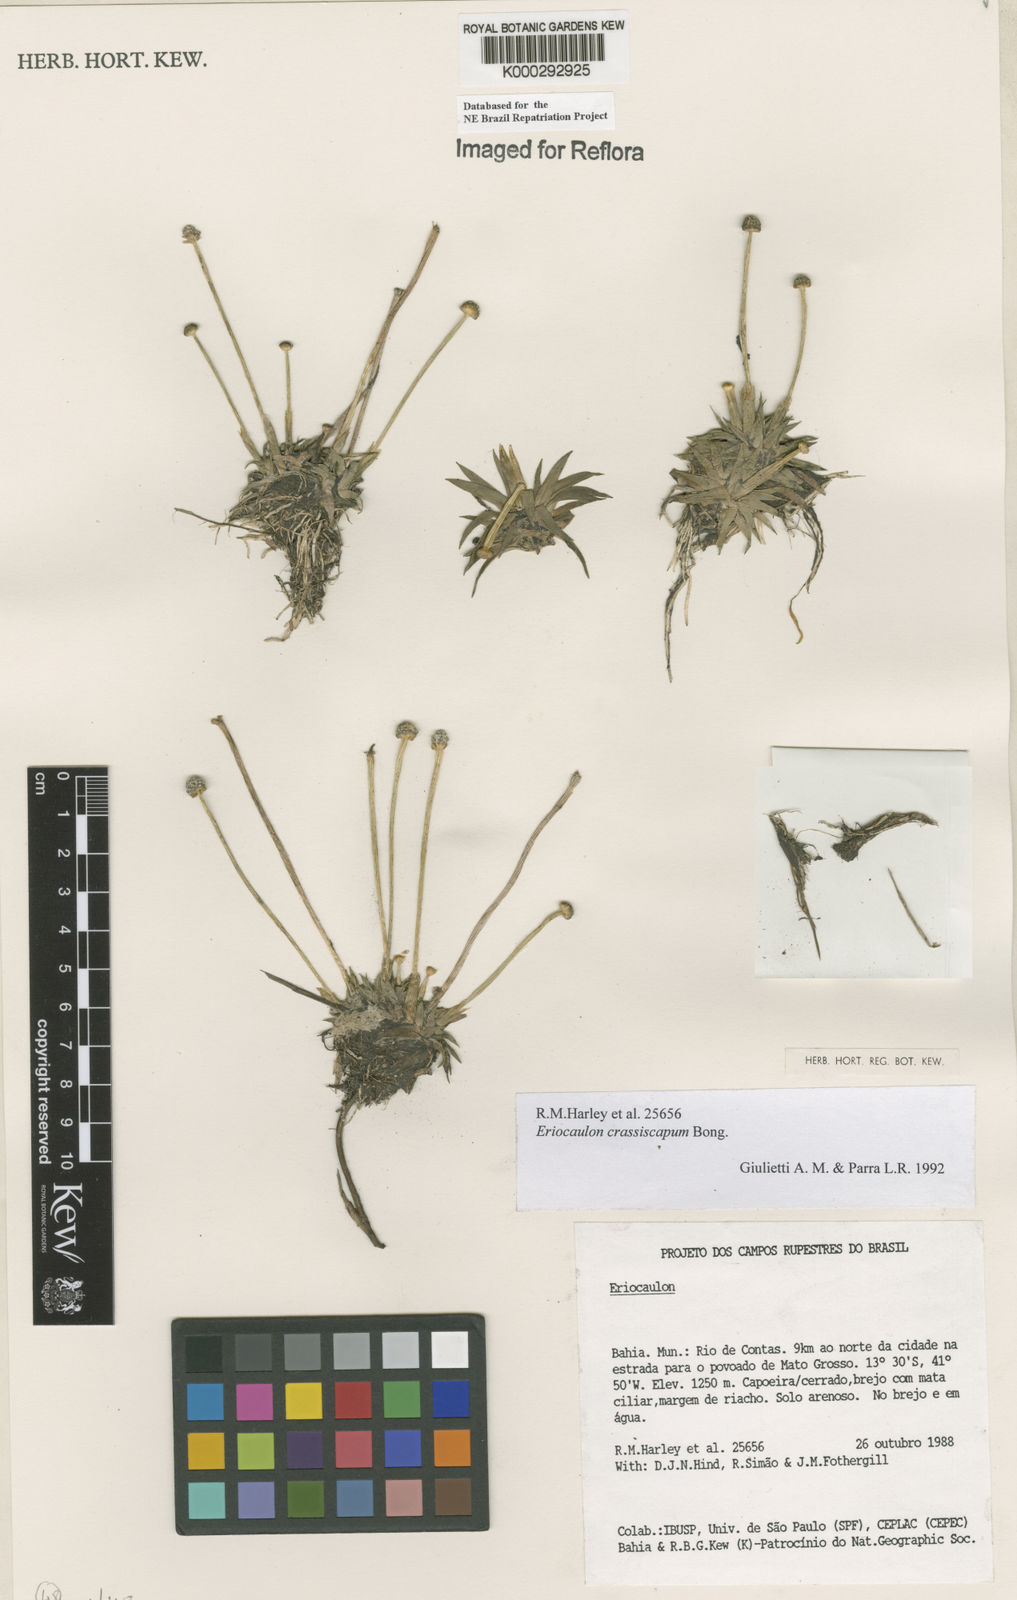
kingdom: Plantae
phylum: Tracheophyta
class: Liliopsida
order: Poales
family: Eriocaulaceae
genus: Eriocaulon
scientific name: Eriocaulon crassiscapum
